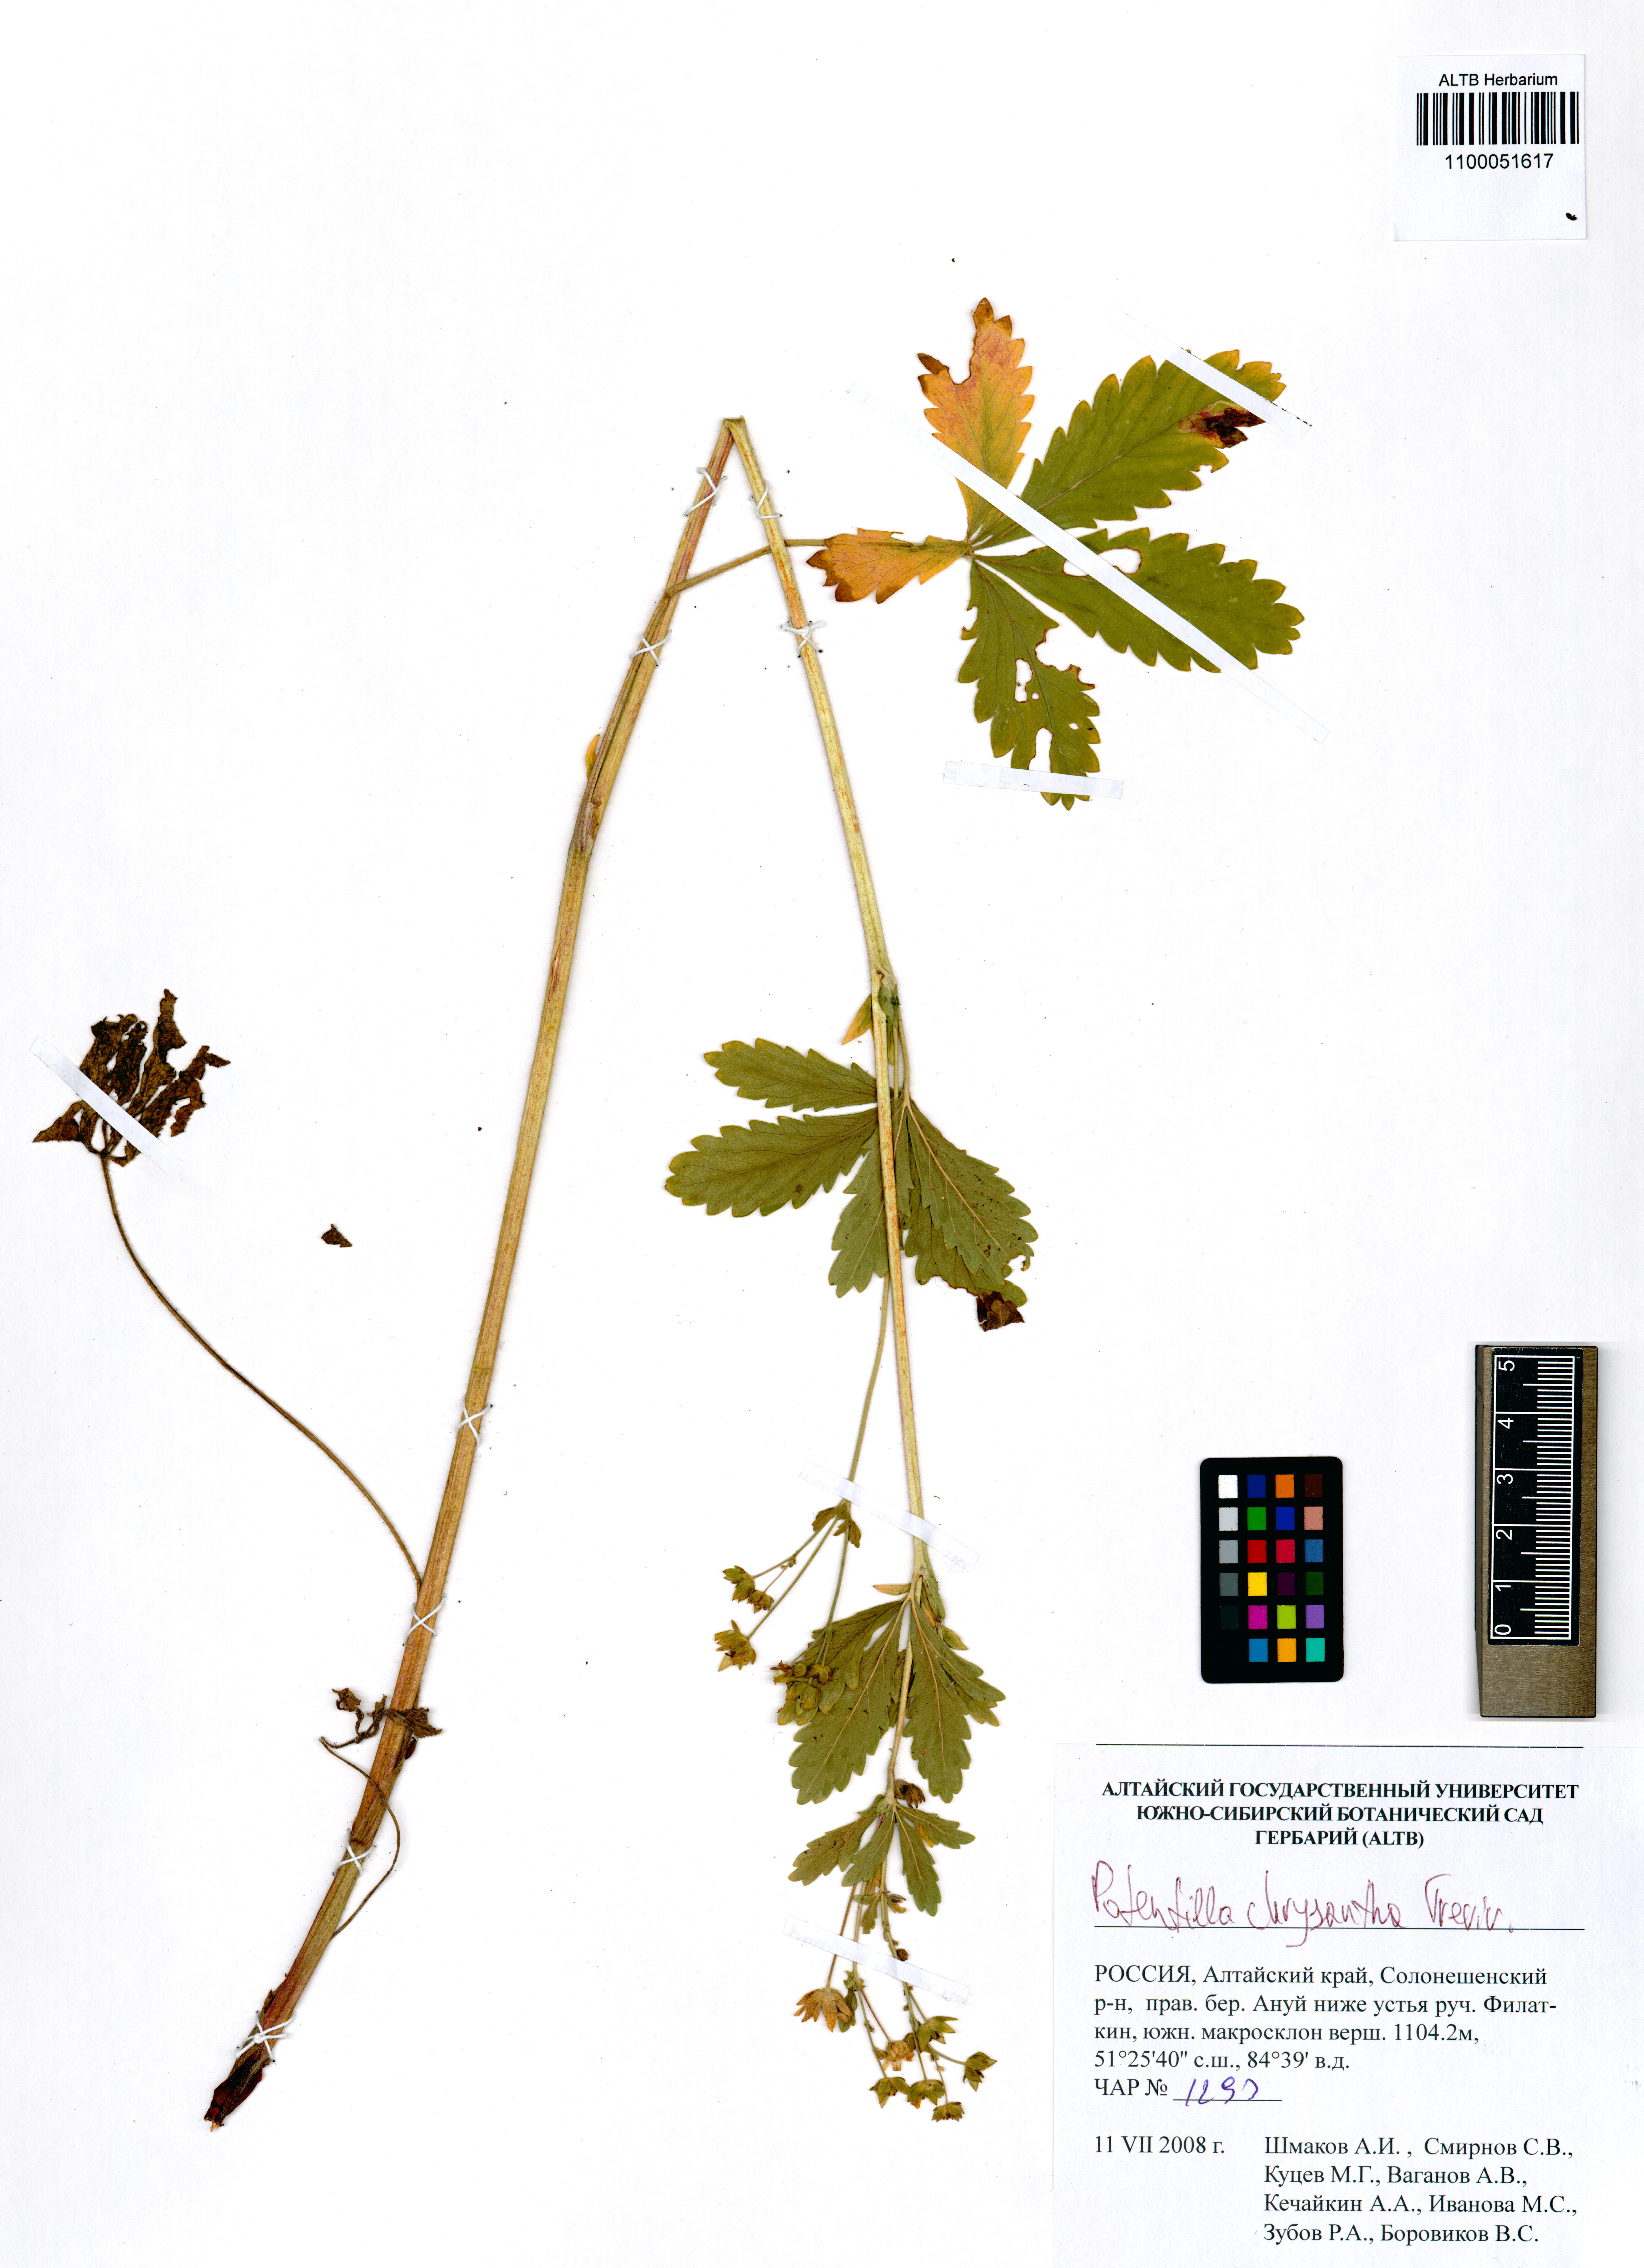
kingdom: Plantae
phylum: Tracheophyta
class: Magnoliopsida
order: Rosales
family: Rosaceae
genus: Potentilla
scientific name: Potentilla chrysantha
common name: Thuringian cinquefoil
